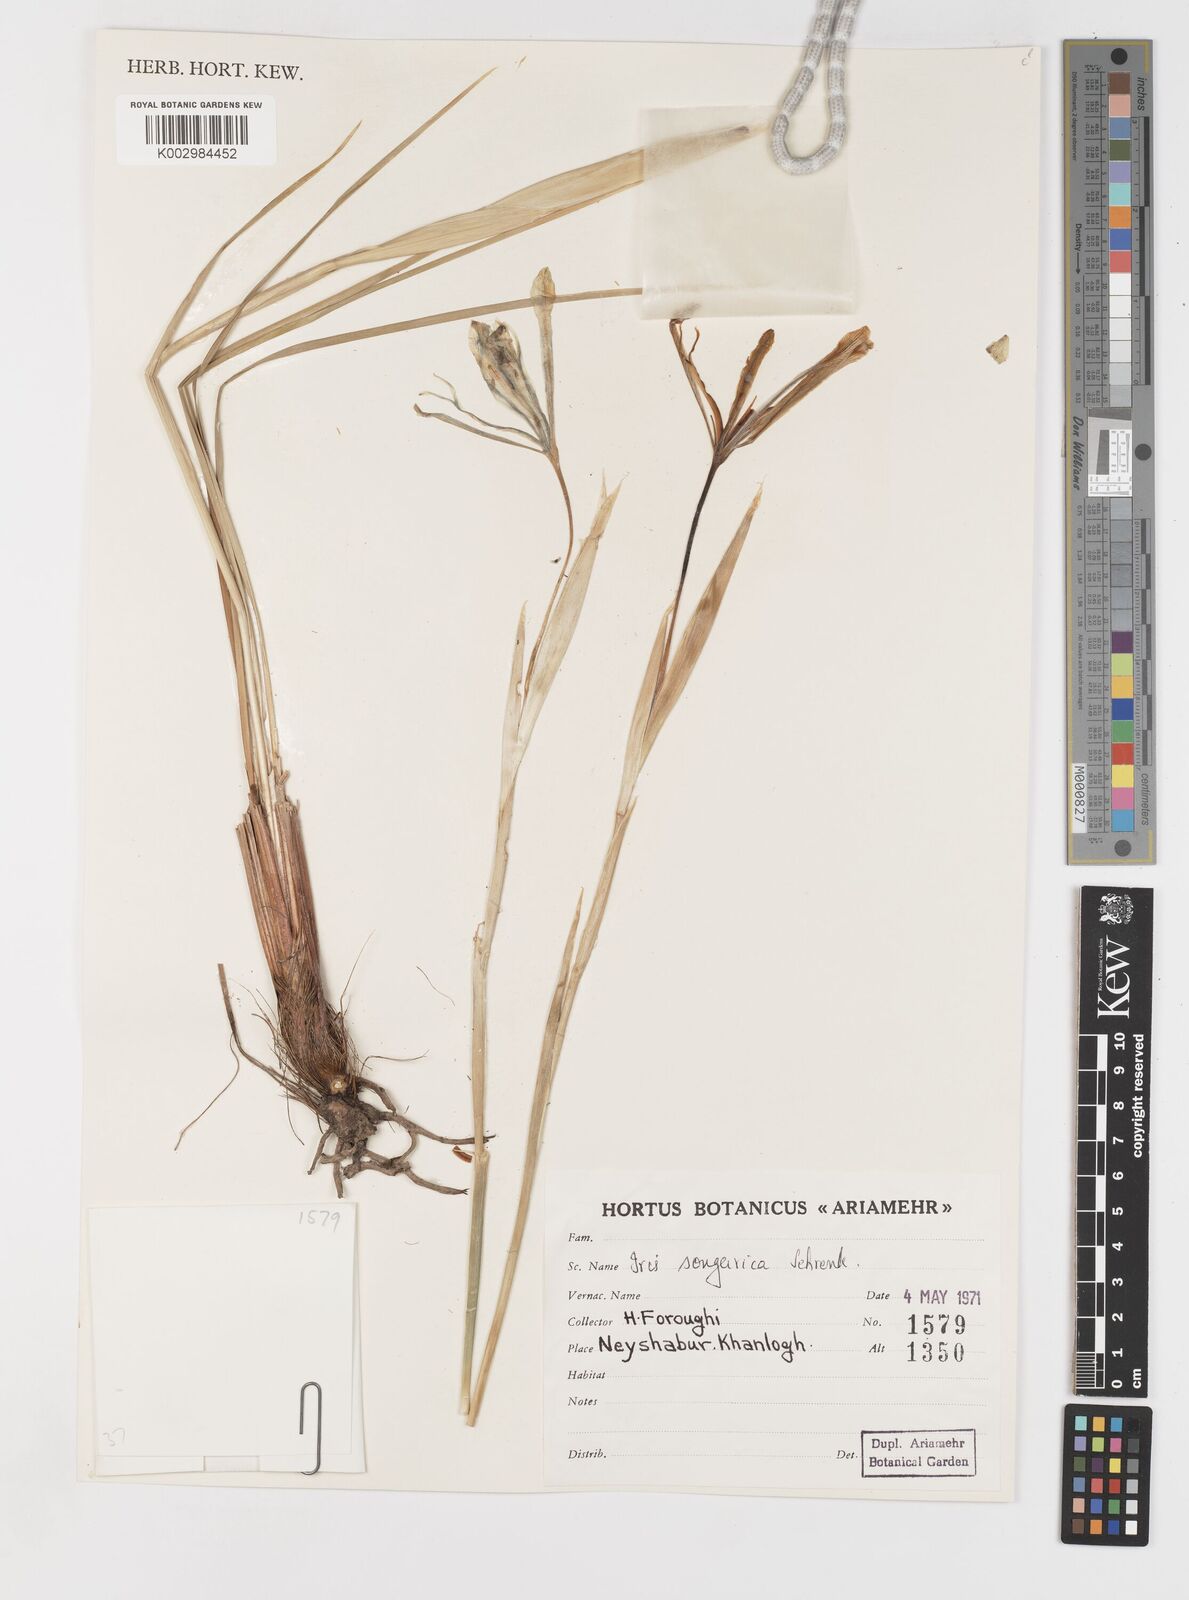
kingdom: Plantae
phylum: Tracheophyta
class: Liliopsida
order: Asparagales
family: Iridaceae
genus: Iris
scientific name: Iris songarica
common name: Songar iris
